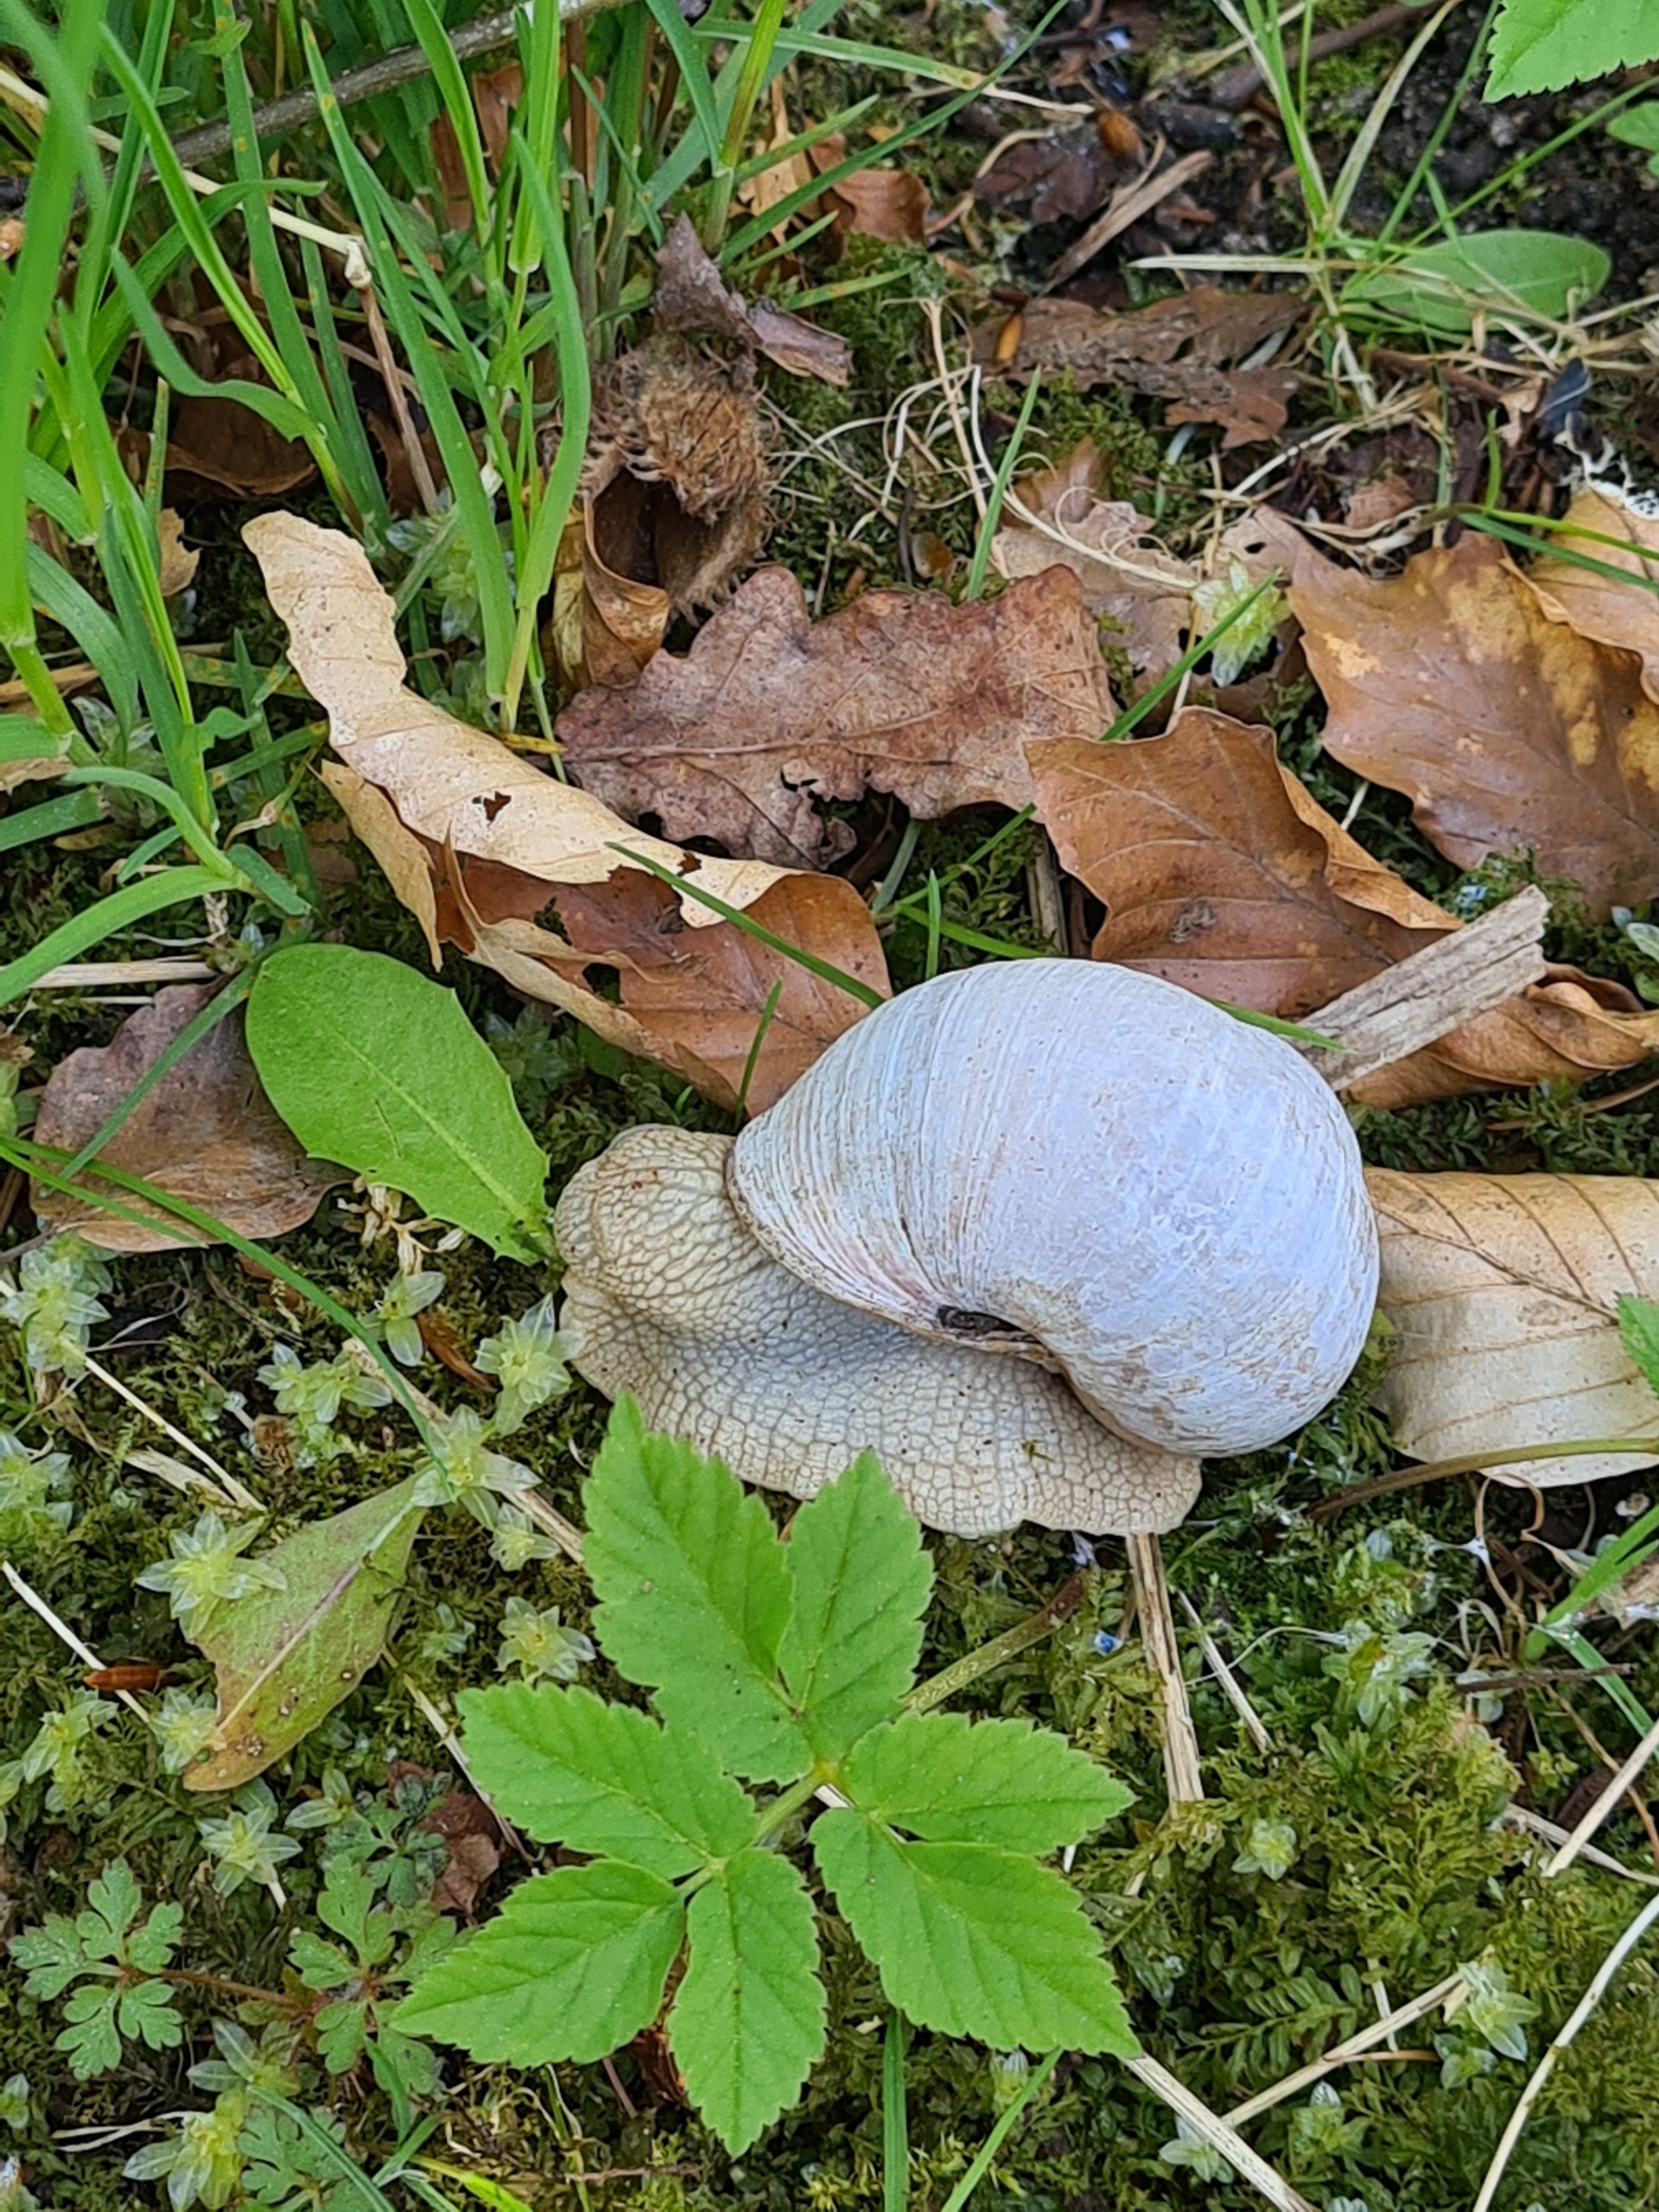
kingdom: Animalia
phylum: Mollusca
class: Gastropoda
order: Stylommatophora
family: Helicidae
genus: Helix
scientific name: Helix pomatia
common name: Vinbjergsnegl
